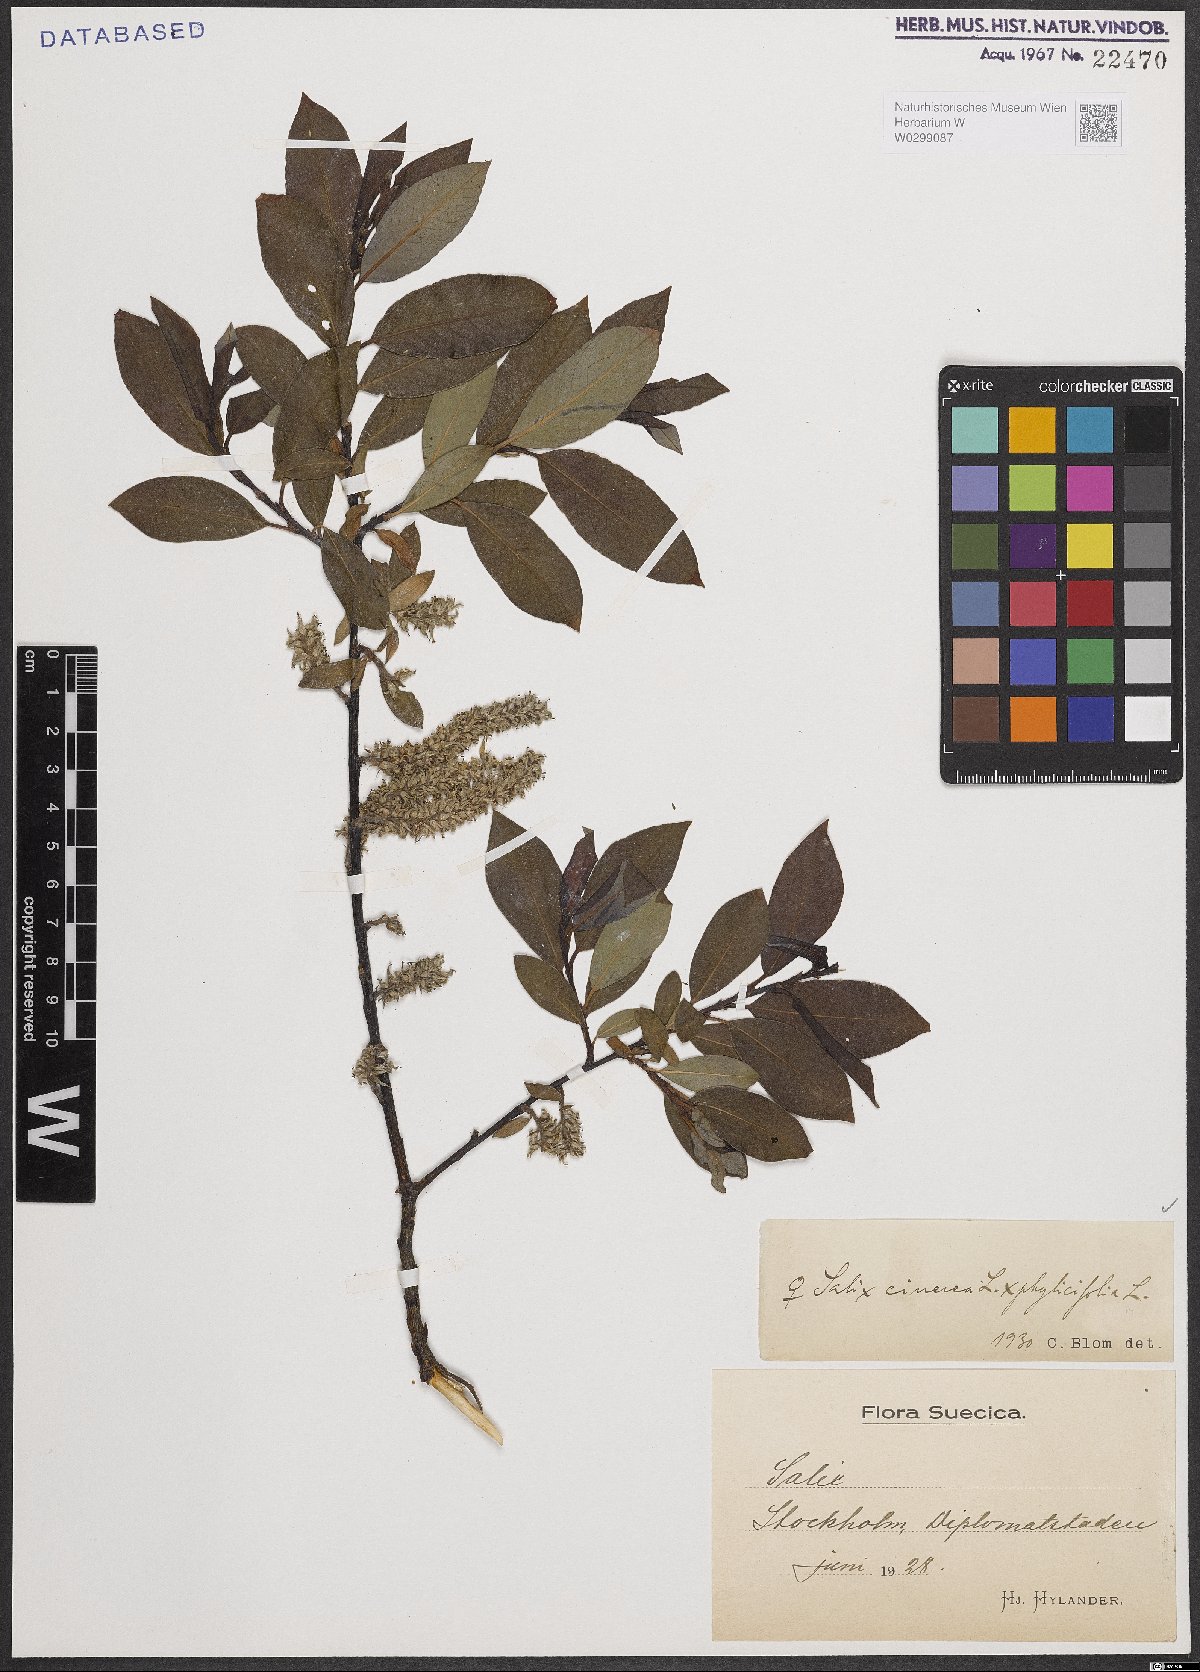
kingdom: Plantae
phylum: Tracheophyta
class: Magnoliopsida
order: Malpighiales
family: Salicaceae
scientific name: Salicaceae
